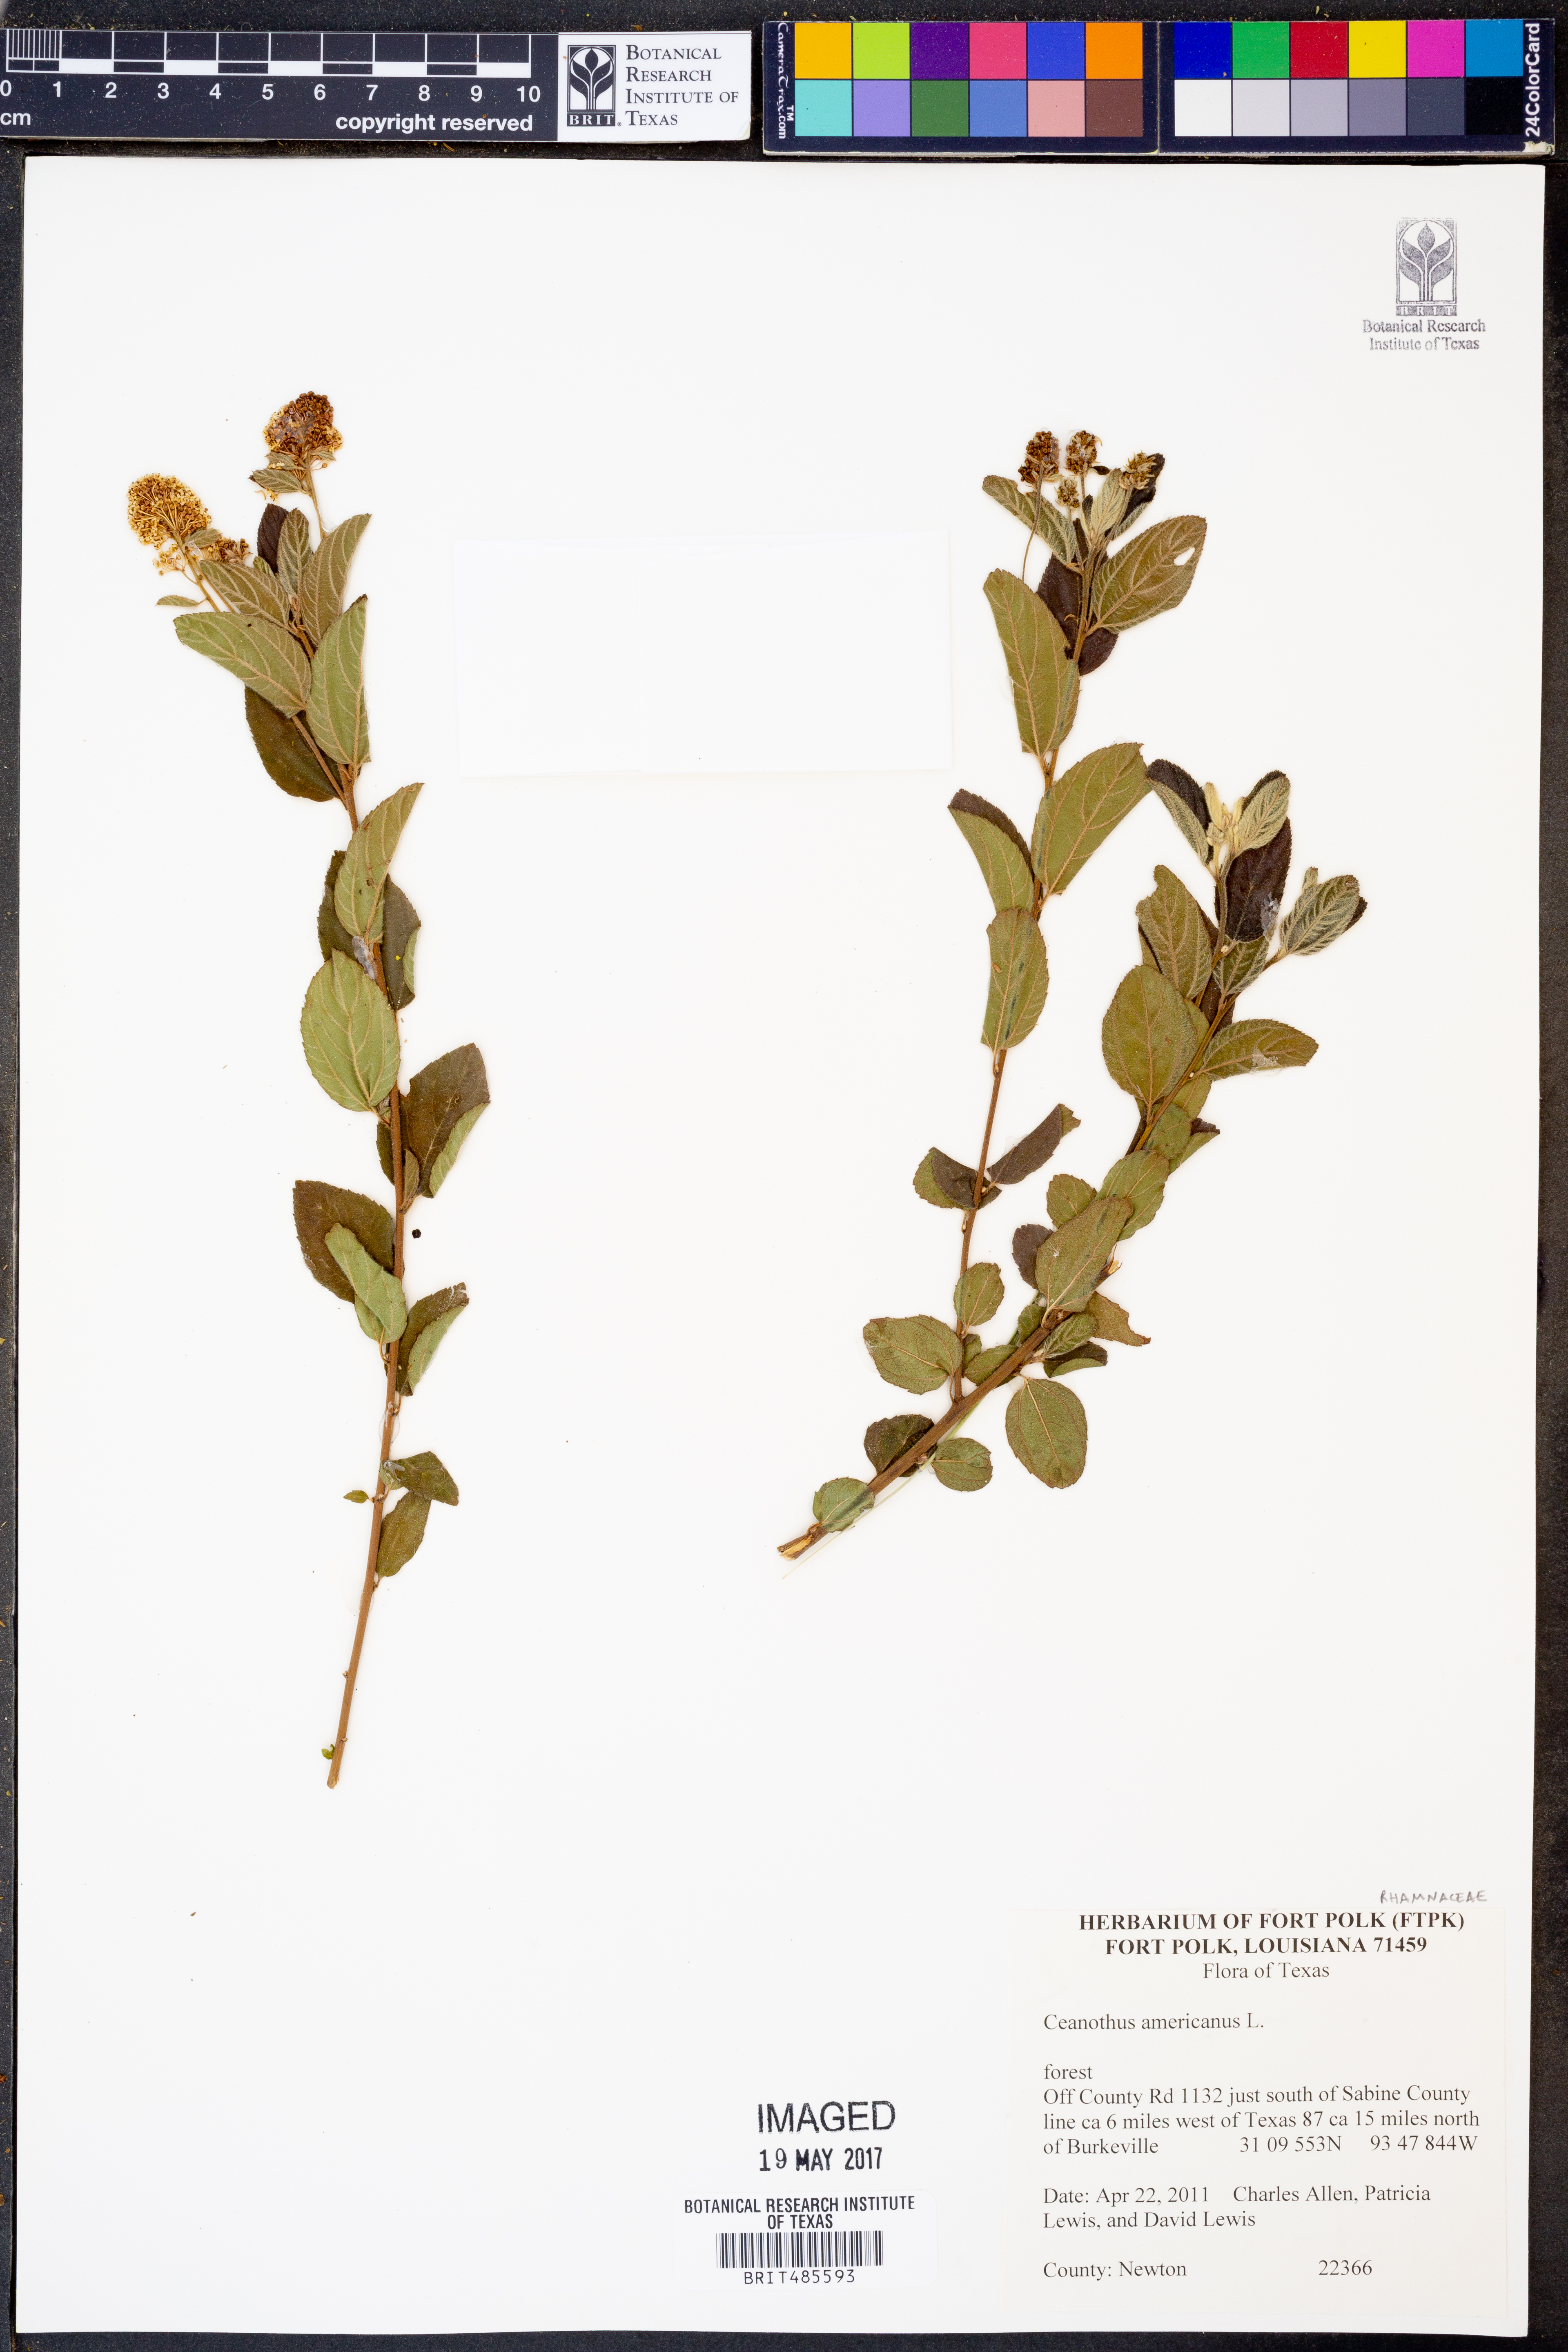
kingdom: Plantae
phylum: Tracheophyta
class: Magnoliopsida
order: Rosales
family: Rhamnaceae
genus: Ceanothus
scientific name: Ceanothus americanus
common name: Redroot
